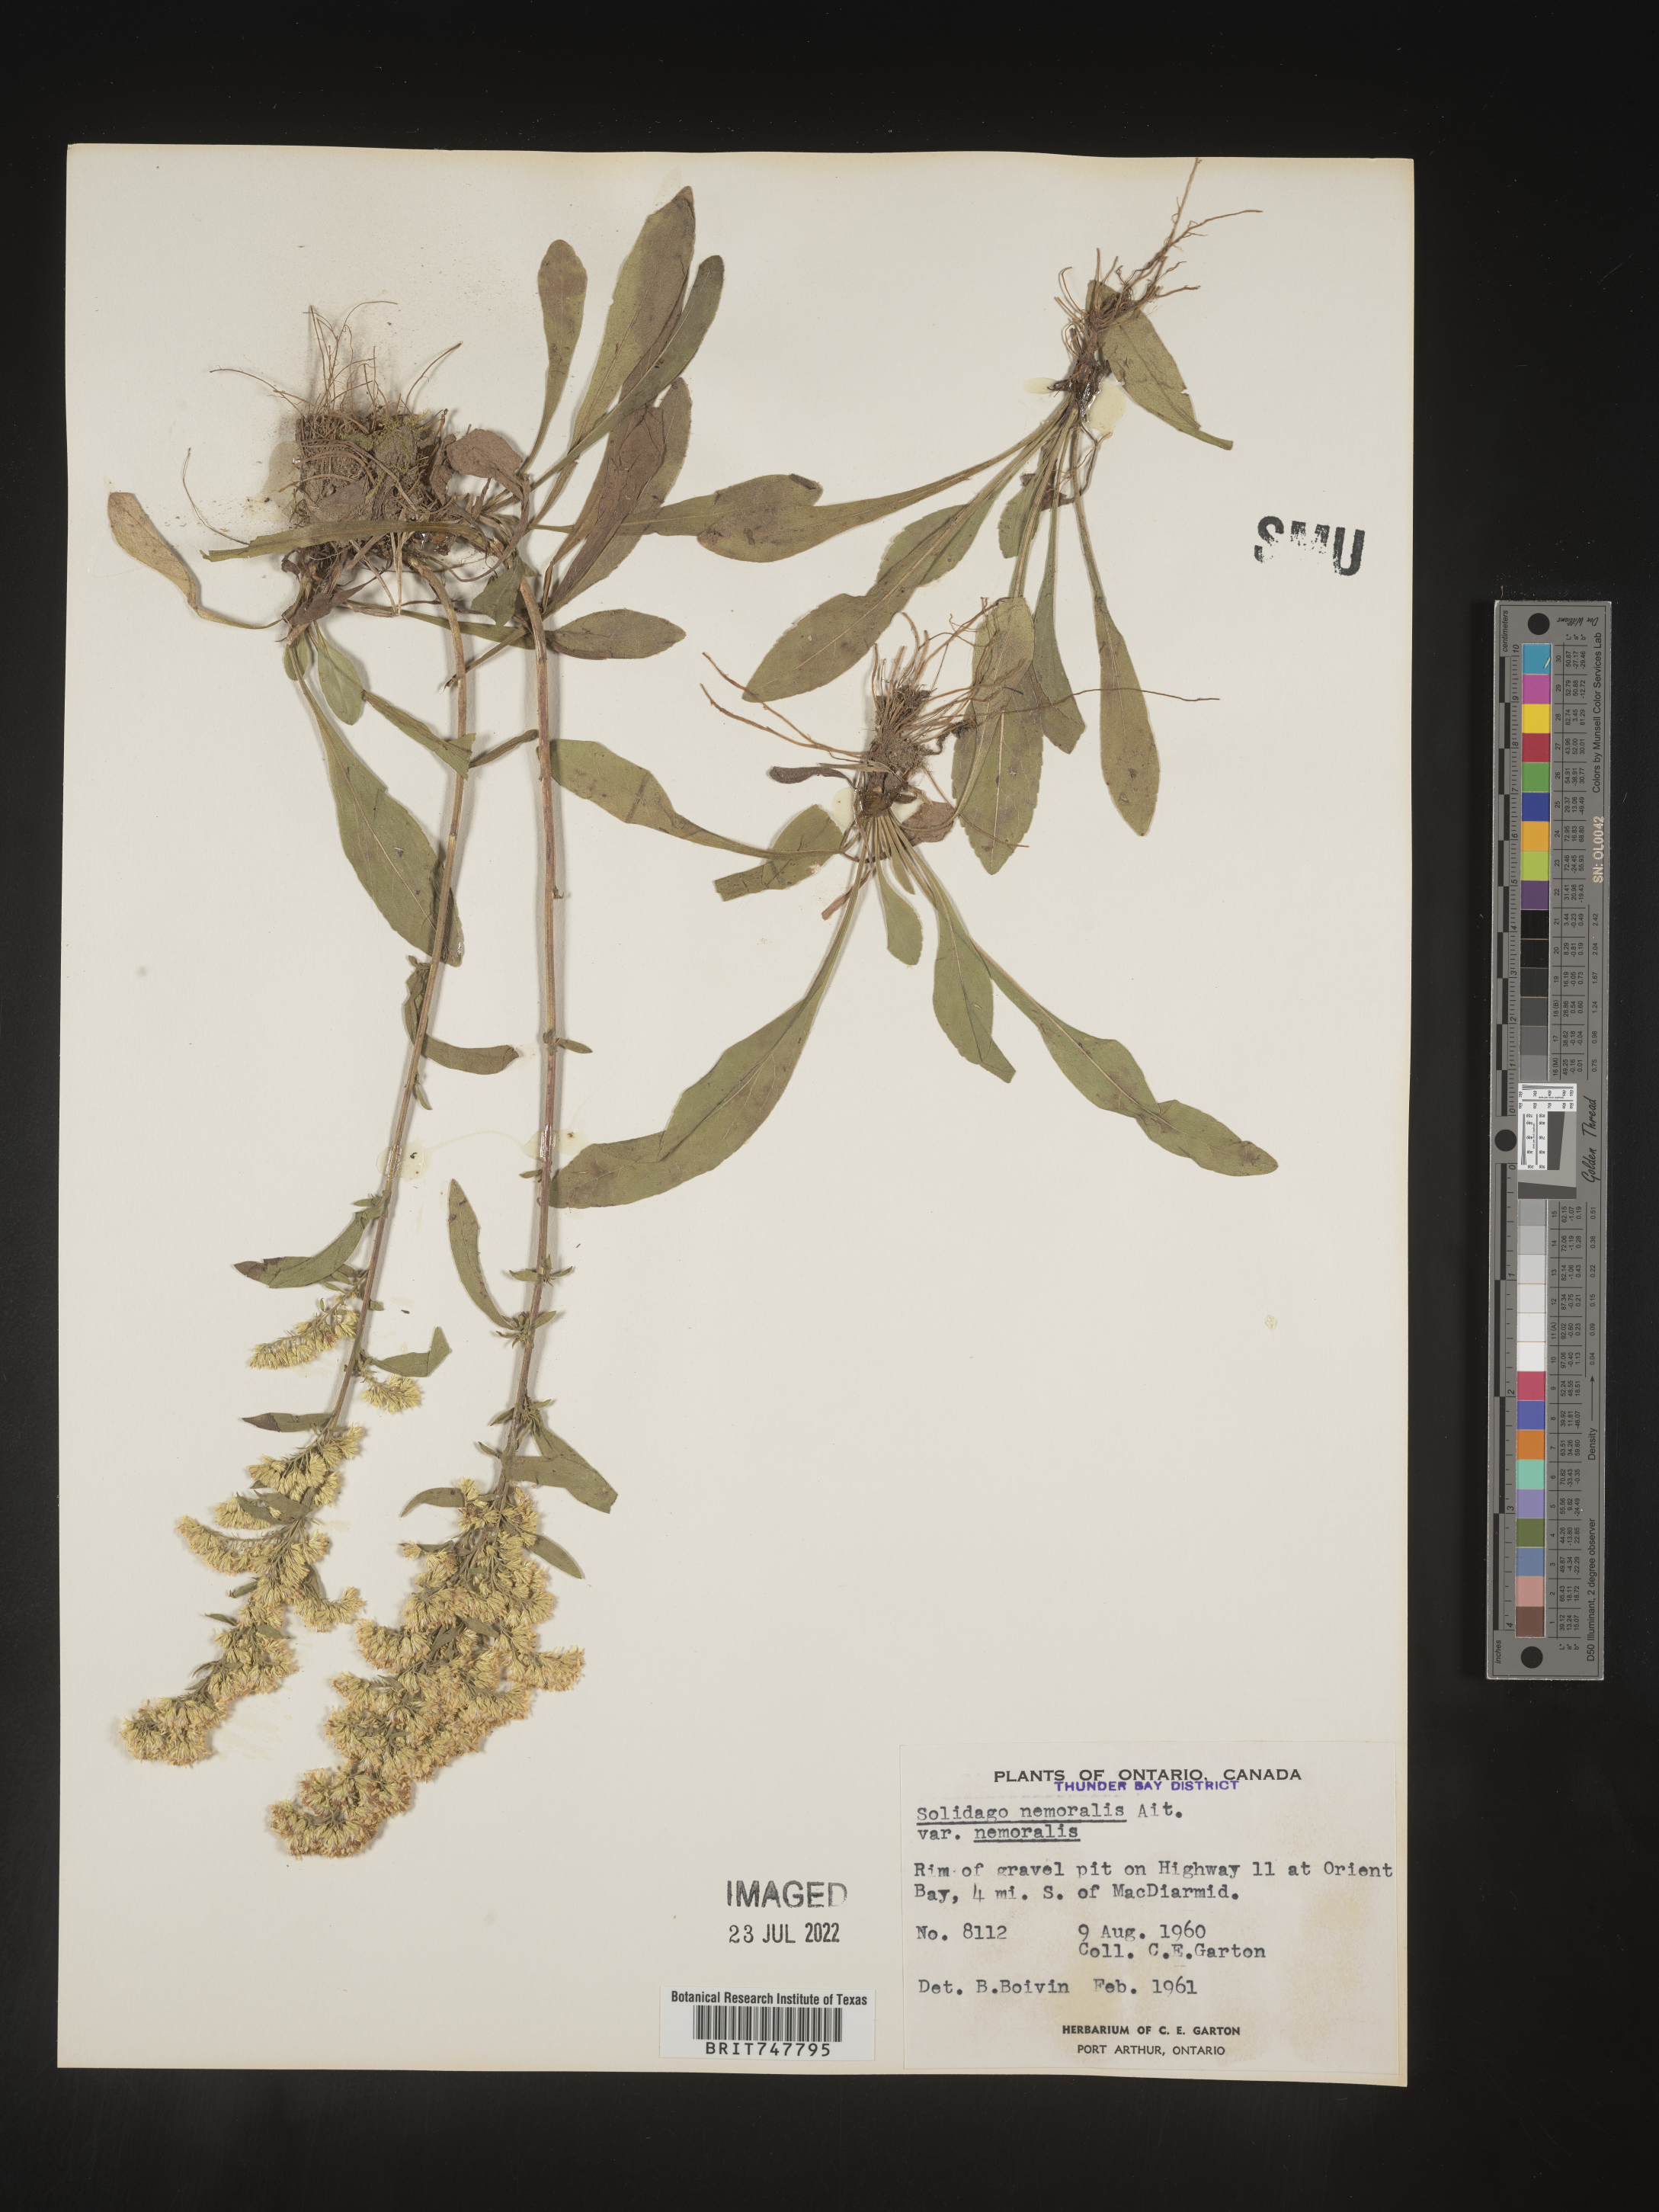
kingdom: Plantae
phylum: Tracheophyta
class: Magnoliopsida
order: Asterales
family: Asteraceae
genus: Solidago
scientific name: Solidago nemoralis
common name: Grey goldenrod
